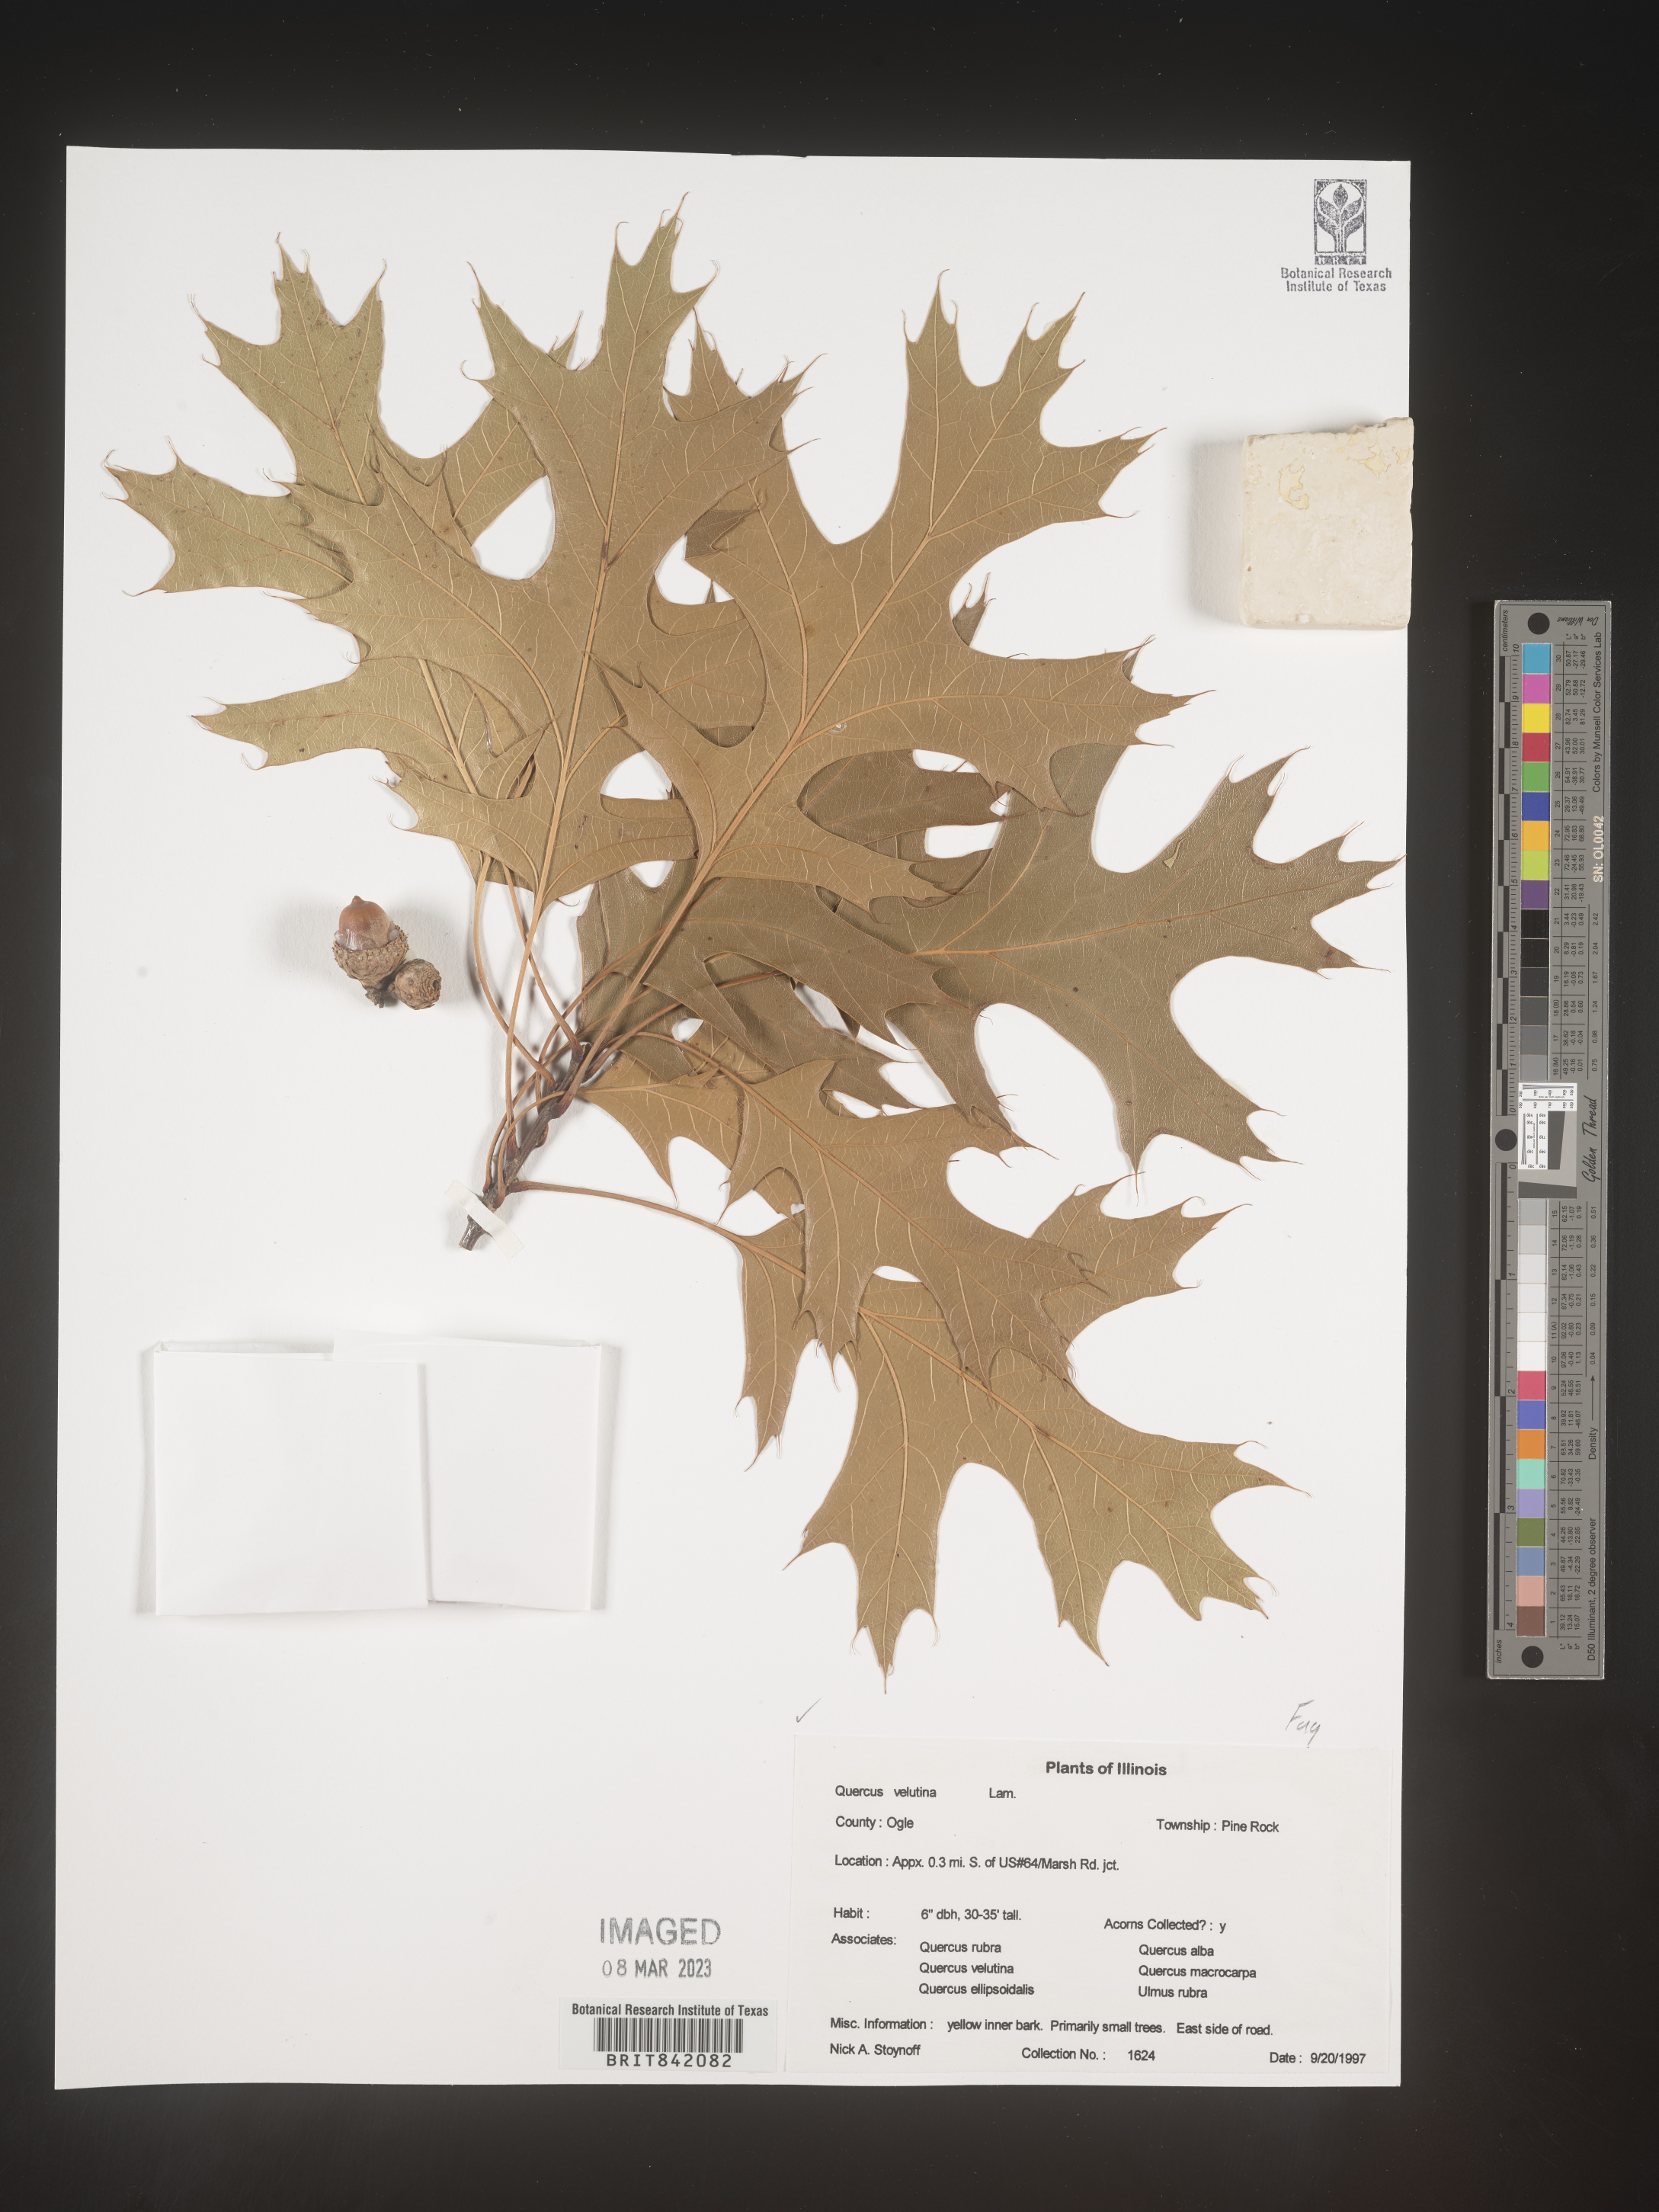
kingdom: Plantae
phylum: Tracheophyta
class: Magnoliopsida
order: Fagales
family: Fagaceae
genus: Quercus
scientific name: Quercus velutina
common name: Black oak
